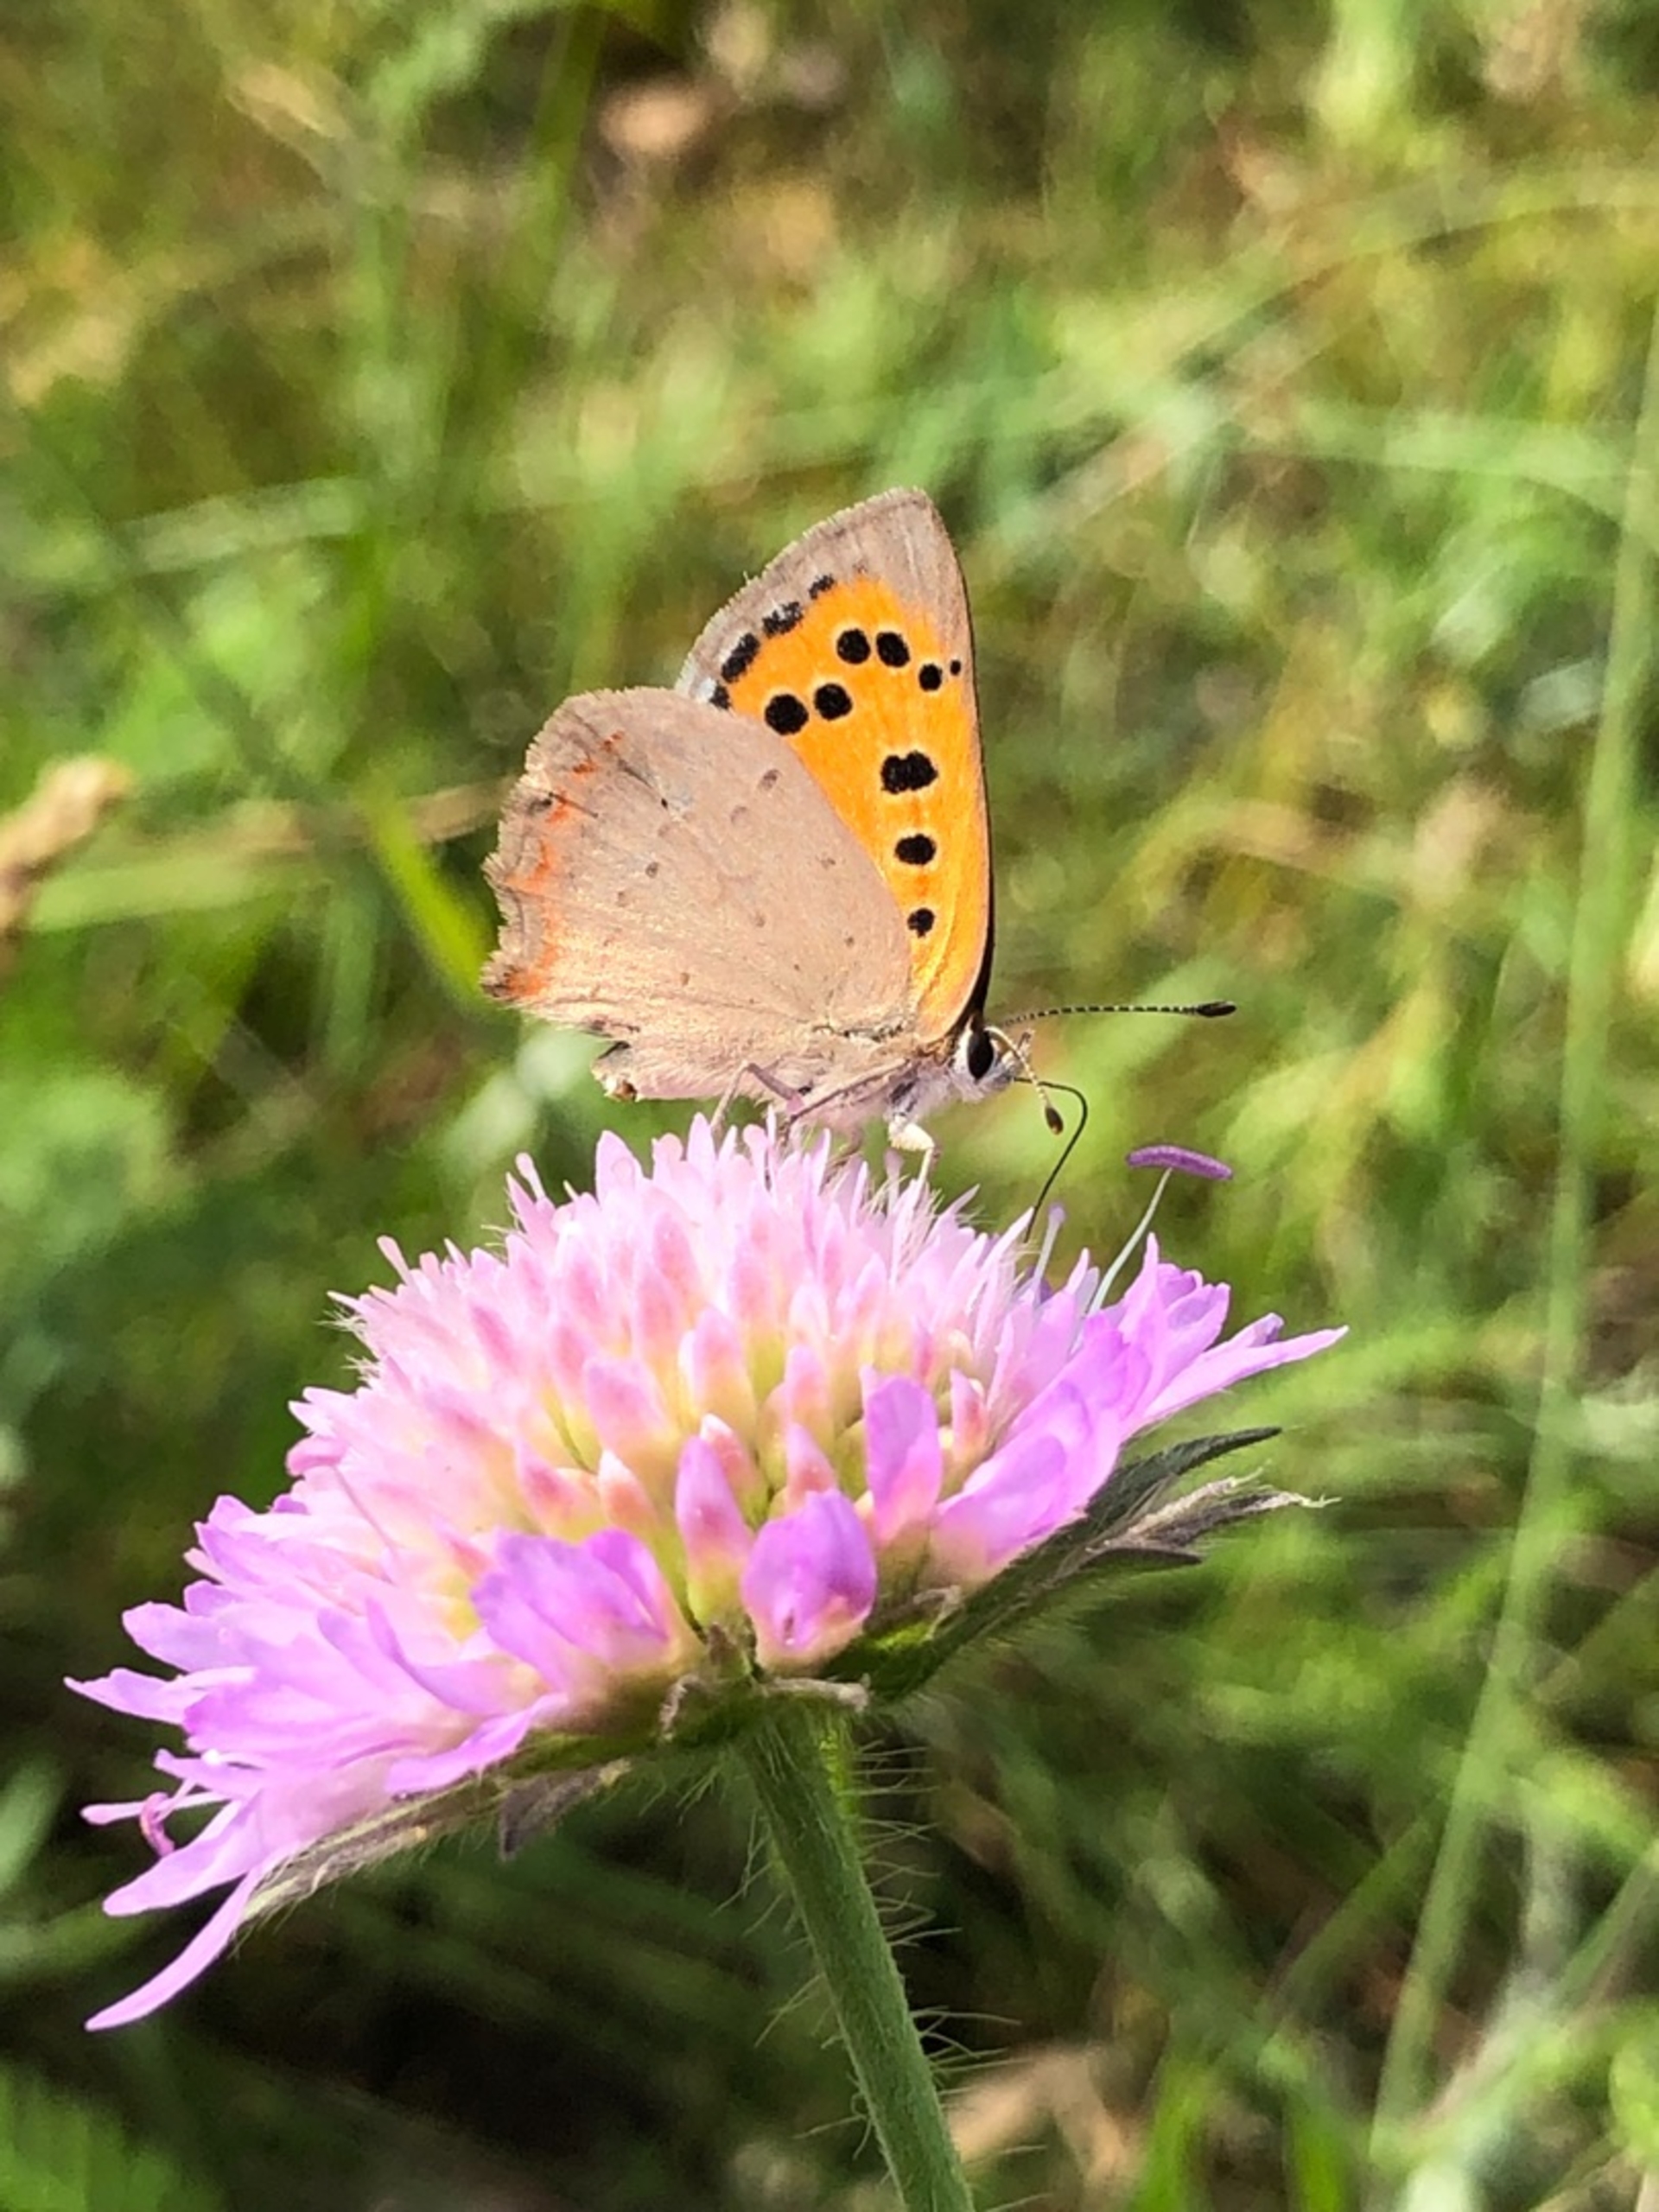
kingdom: Animalia
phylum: Arthropoda
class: Insecta
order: Lepidoptera
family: Lycaenidae
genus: Lycaena
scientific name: Lycaena phlaeas
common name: Lille ildfugl
